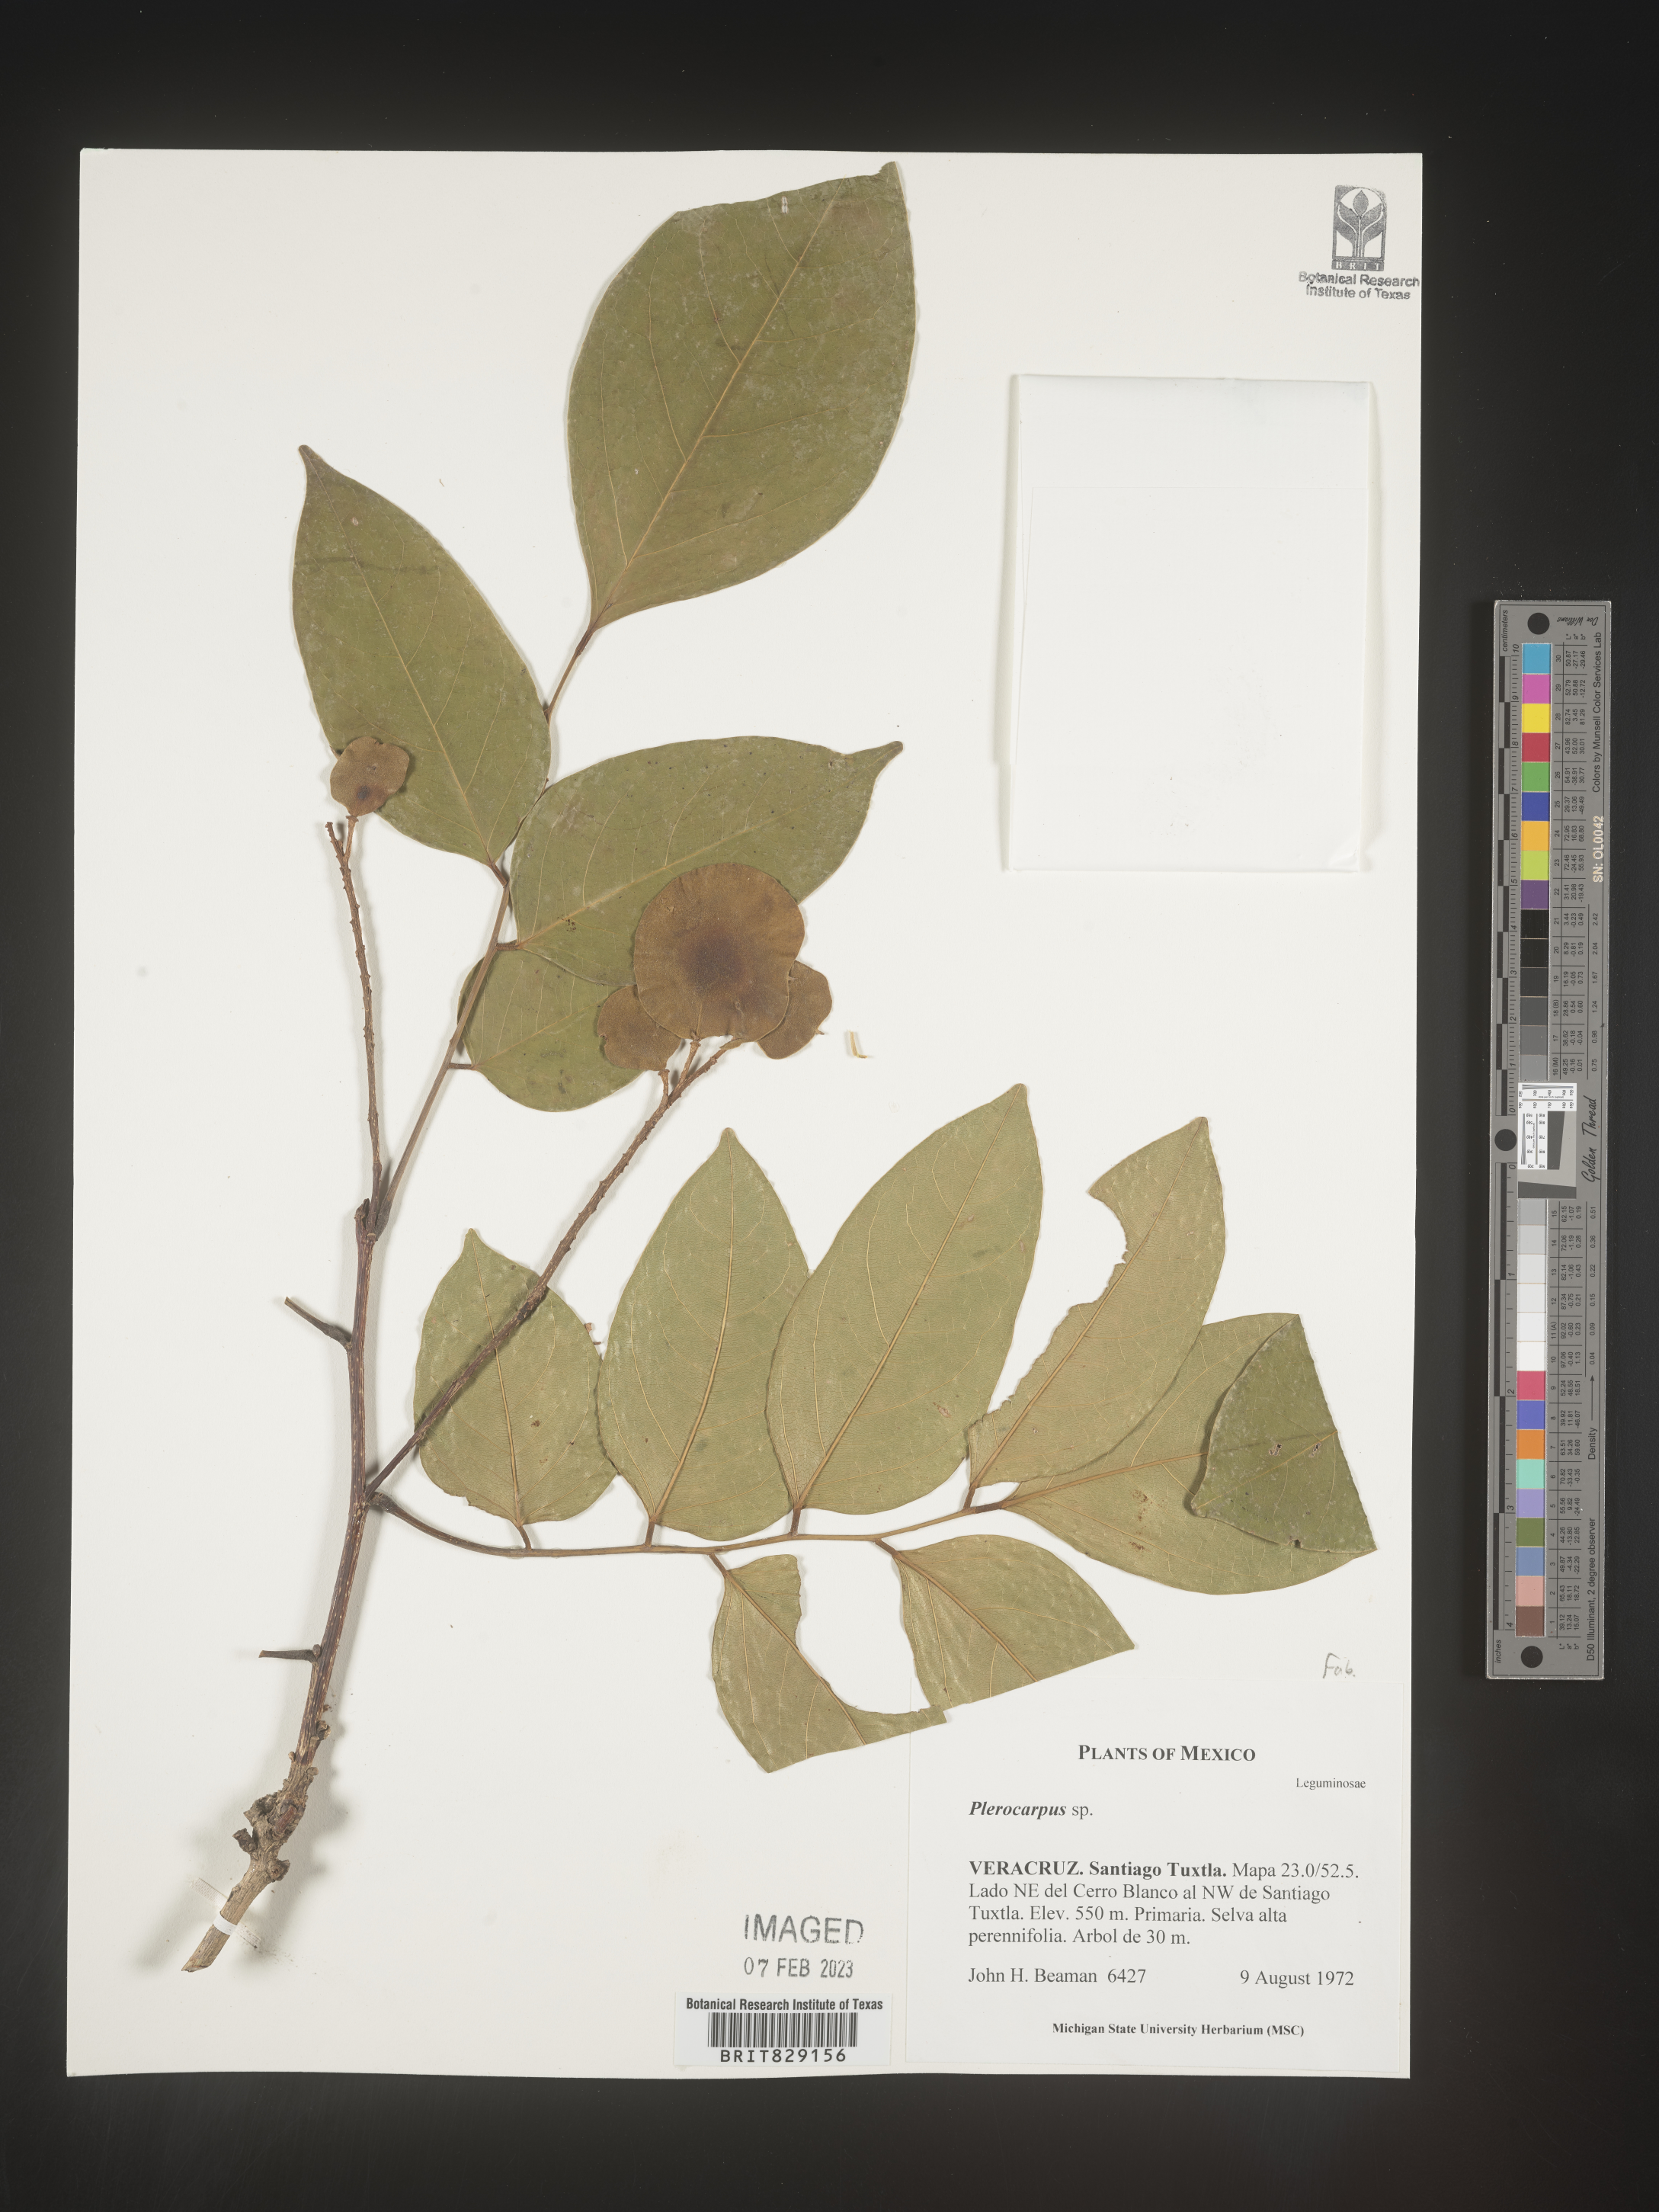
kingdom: Plantae
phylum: Tracheophyta
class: Magnoliopsida
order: Fabales
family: Fabaceae
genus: Pterocarpus
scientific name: Pterocarpus
